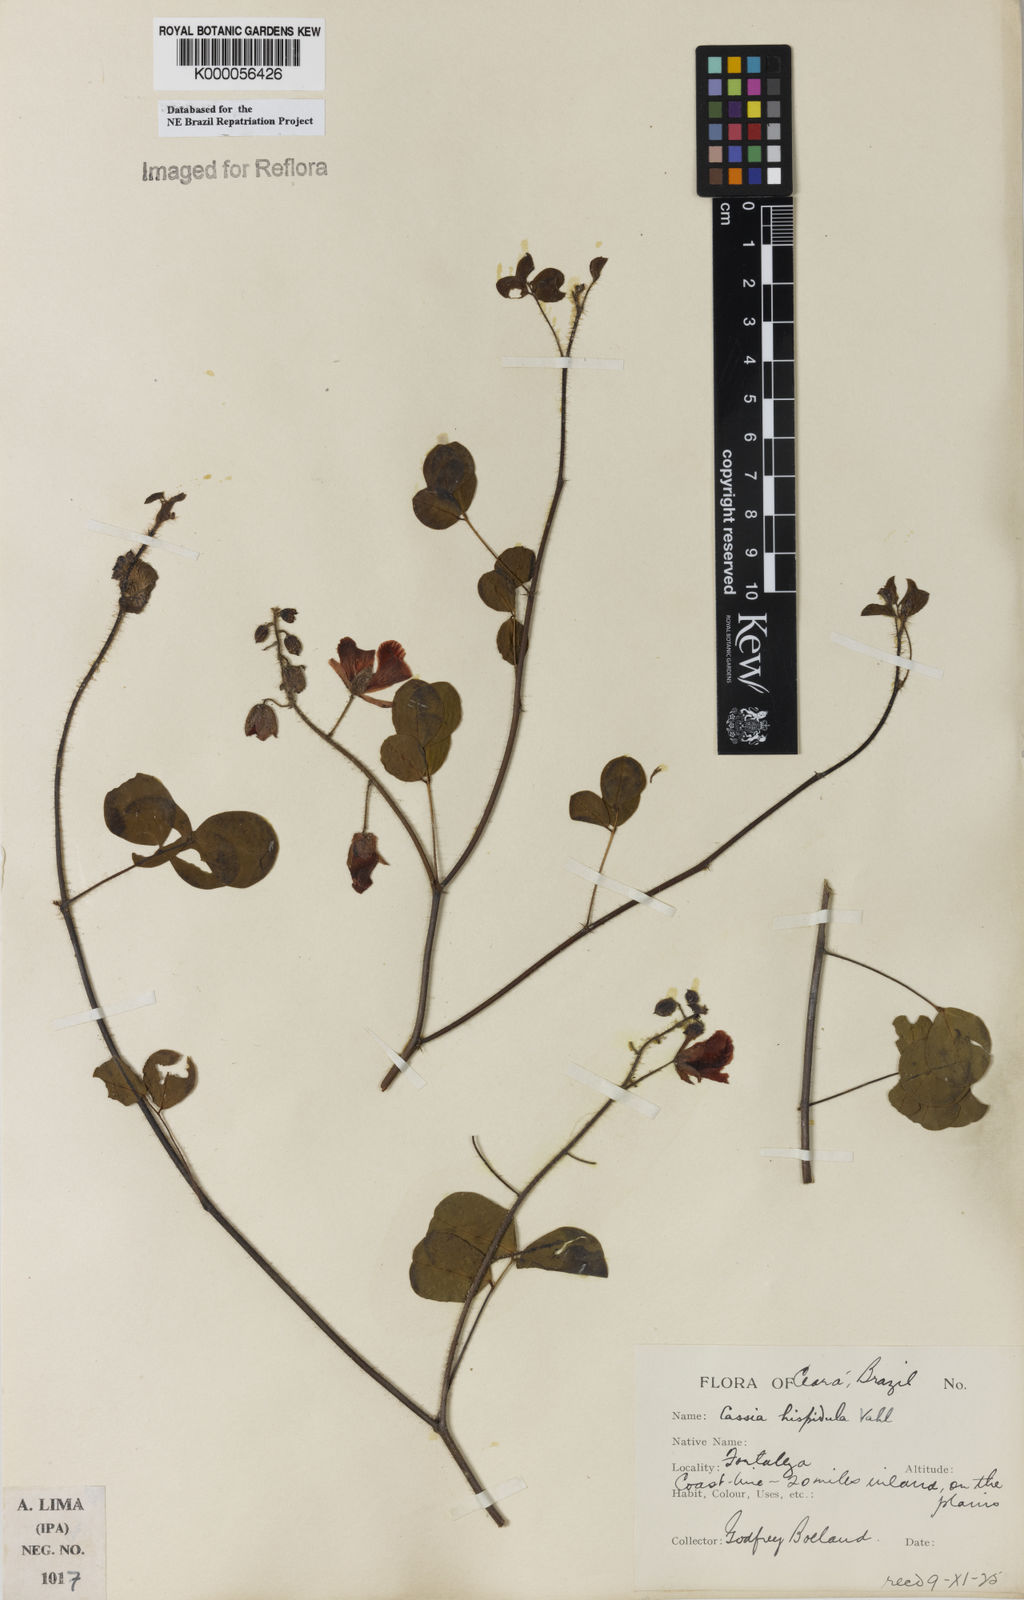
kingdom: Plantae
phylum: Tracheophyta
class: Magnoliopsida
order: Fabales
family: Fabaceae
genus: Chamaecrista
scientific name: Chamaecrista hispidula
